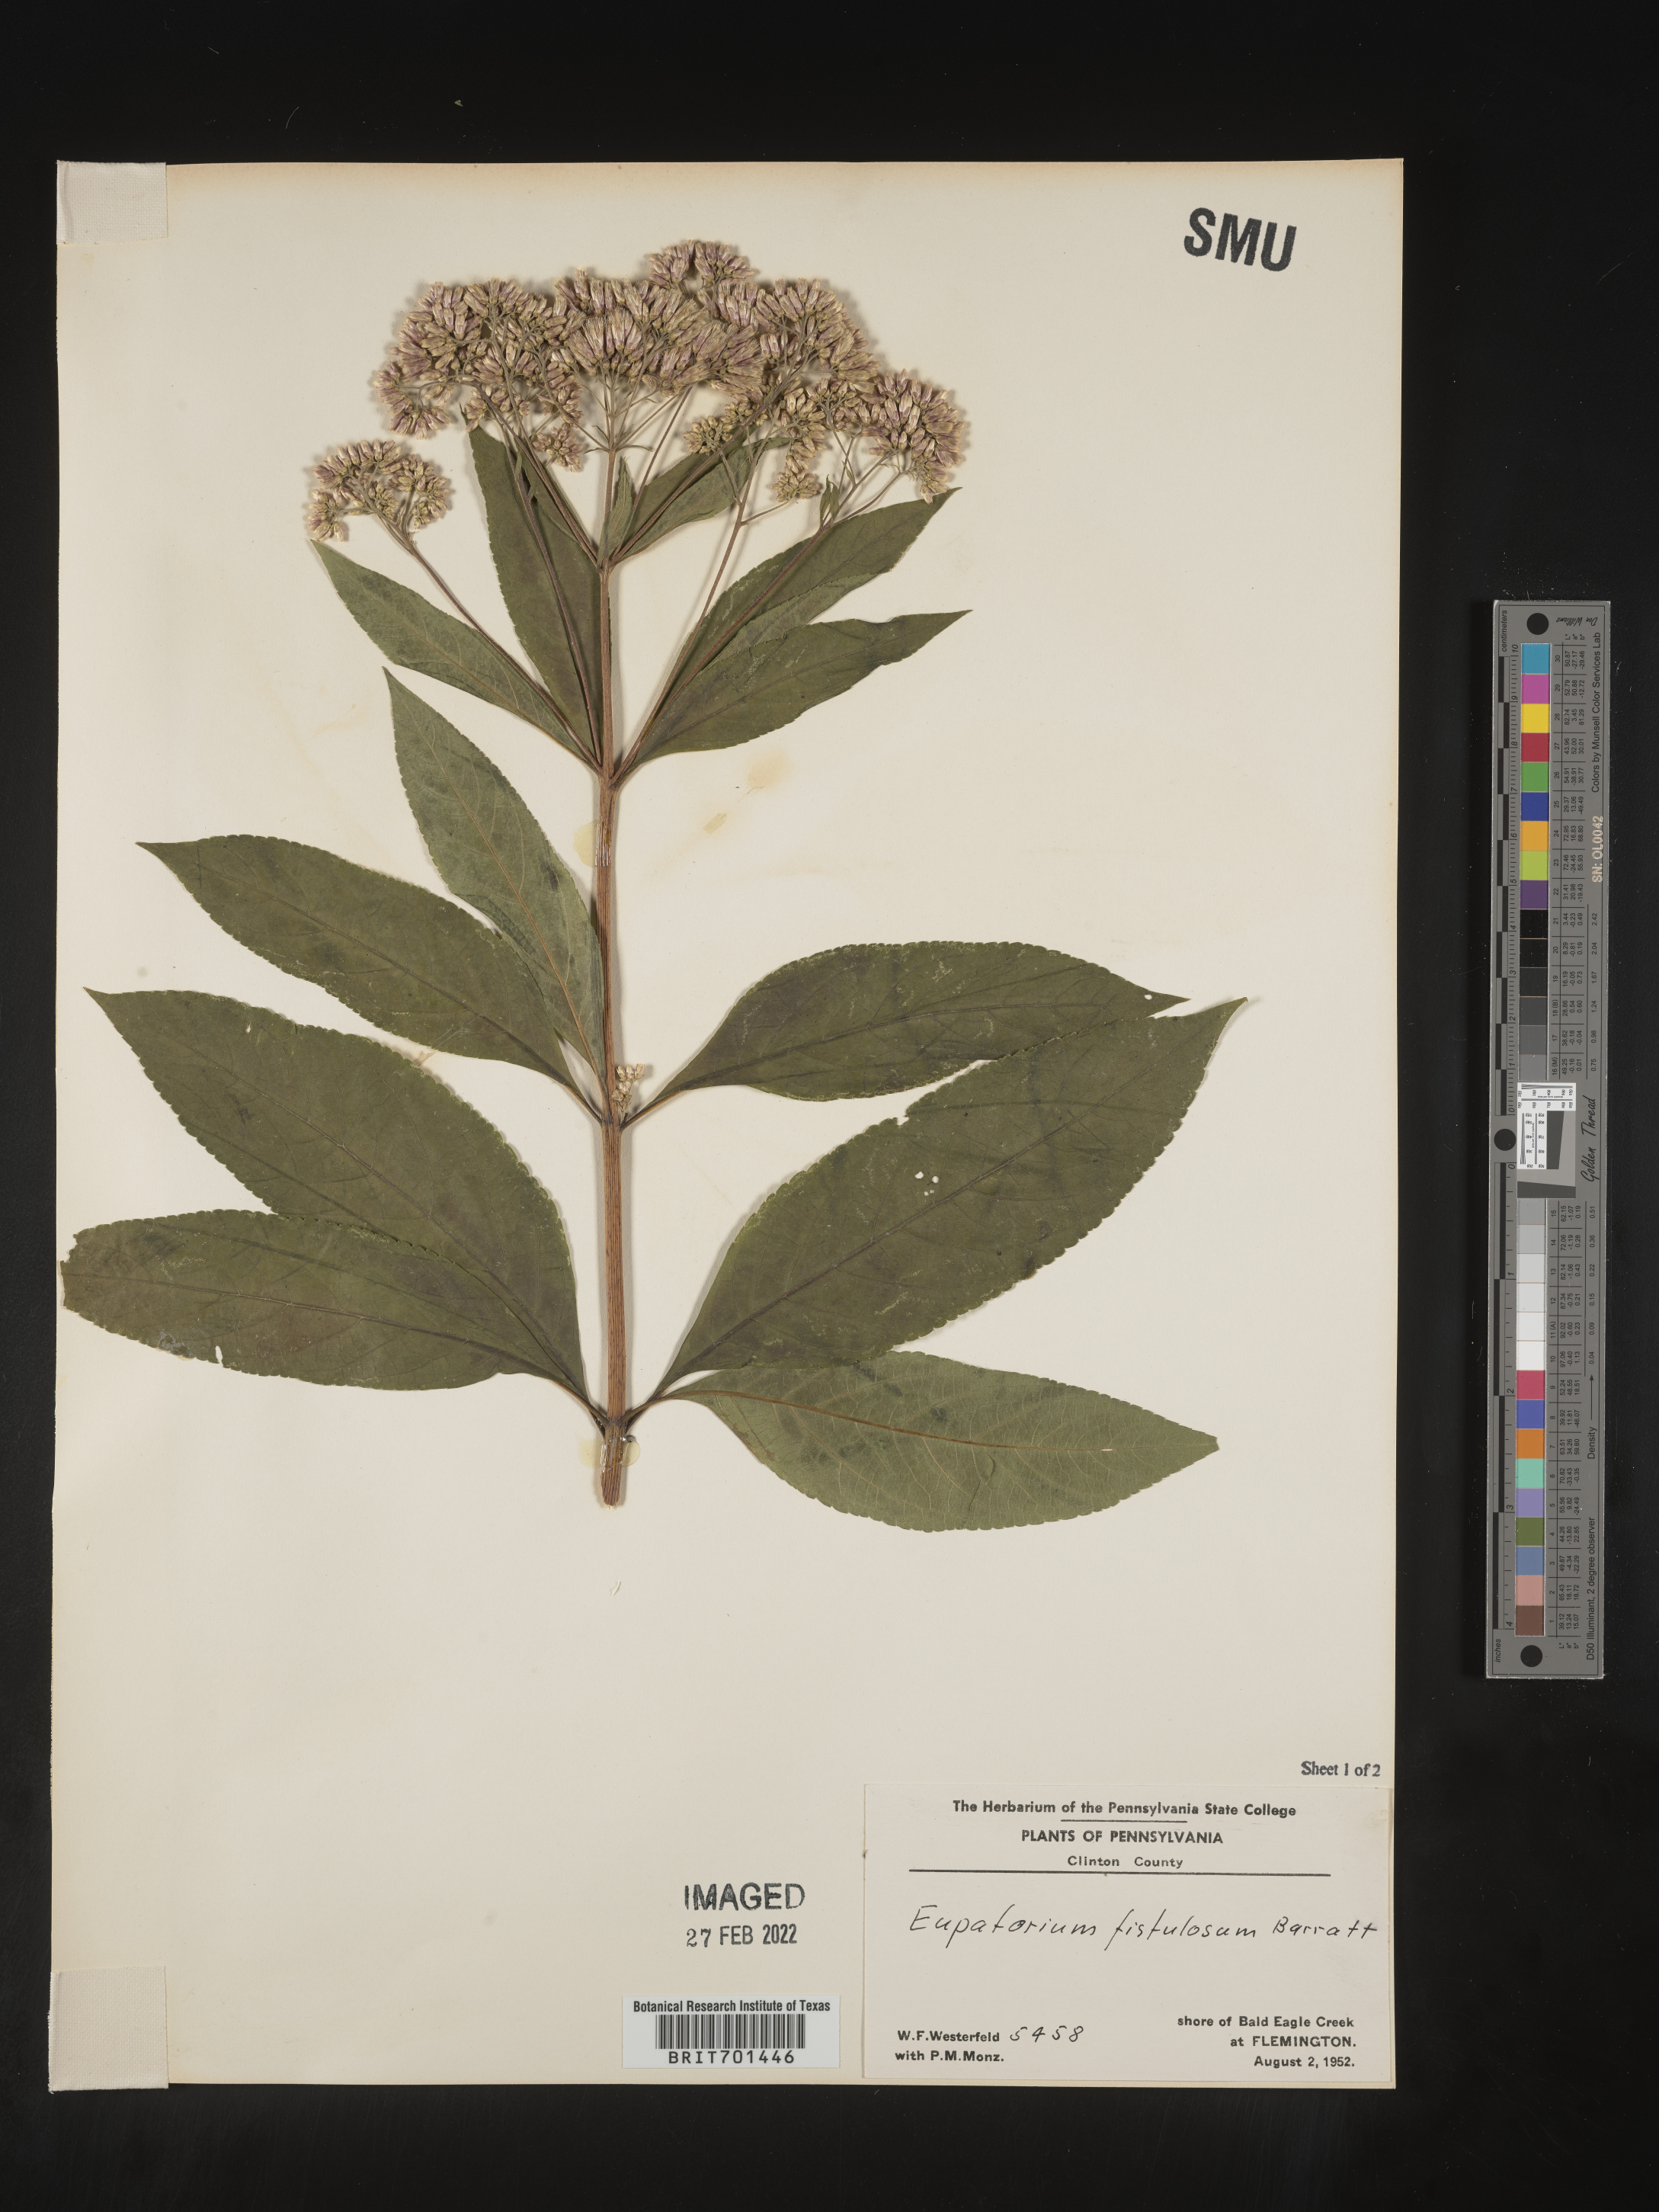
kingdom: Plantae
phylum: Tracheophyta
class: Magnoliopsida
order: Asterales
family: Asteraceae
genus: Eutrochium
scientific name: Eutrochium fistulosum
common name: Trumpetweed
